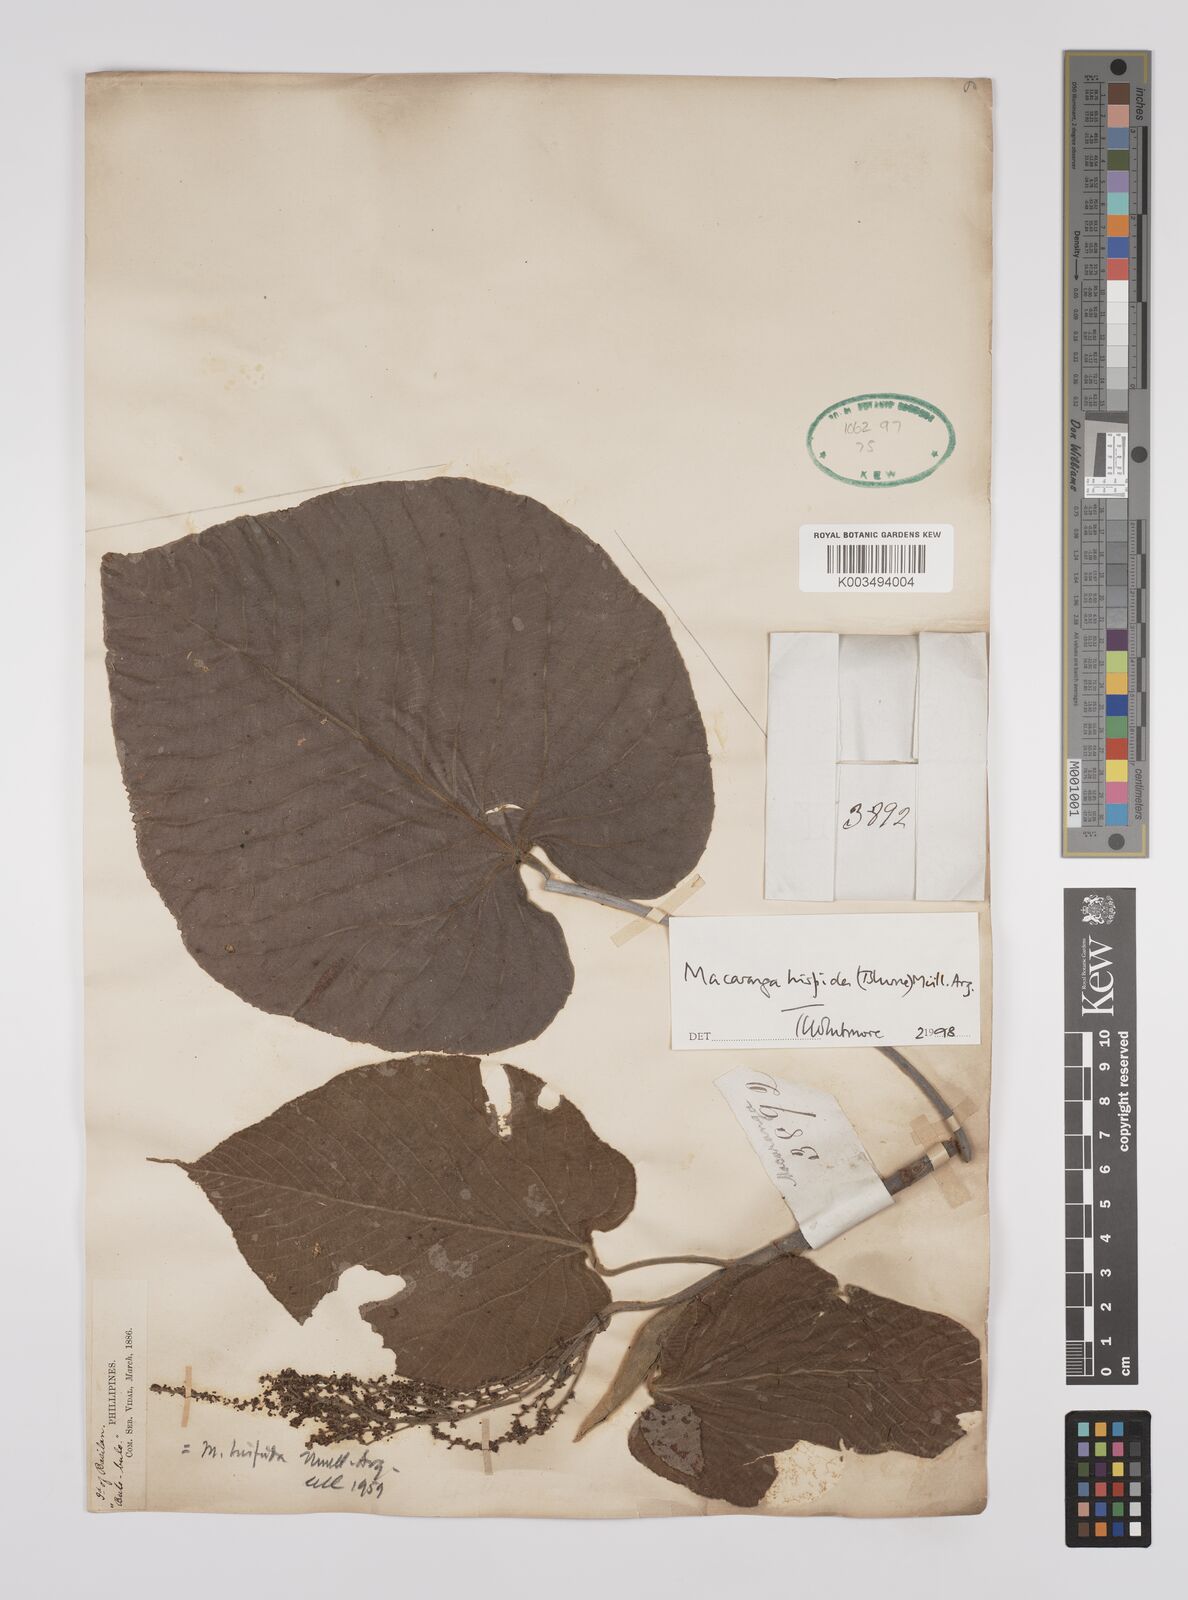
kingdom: Plantae
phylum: Tracheophyta
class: Magnoliopsida
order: Malpighiales
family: Euphorbiaceae
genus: Macaranga
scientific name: Macaranga hispida
